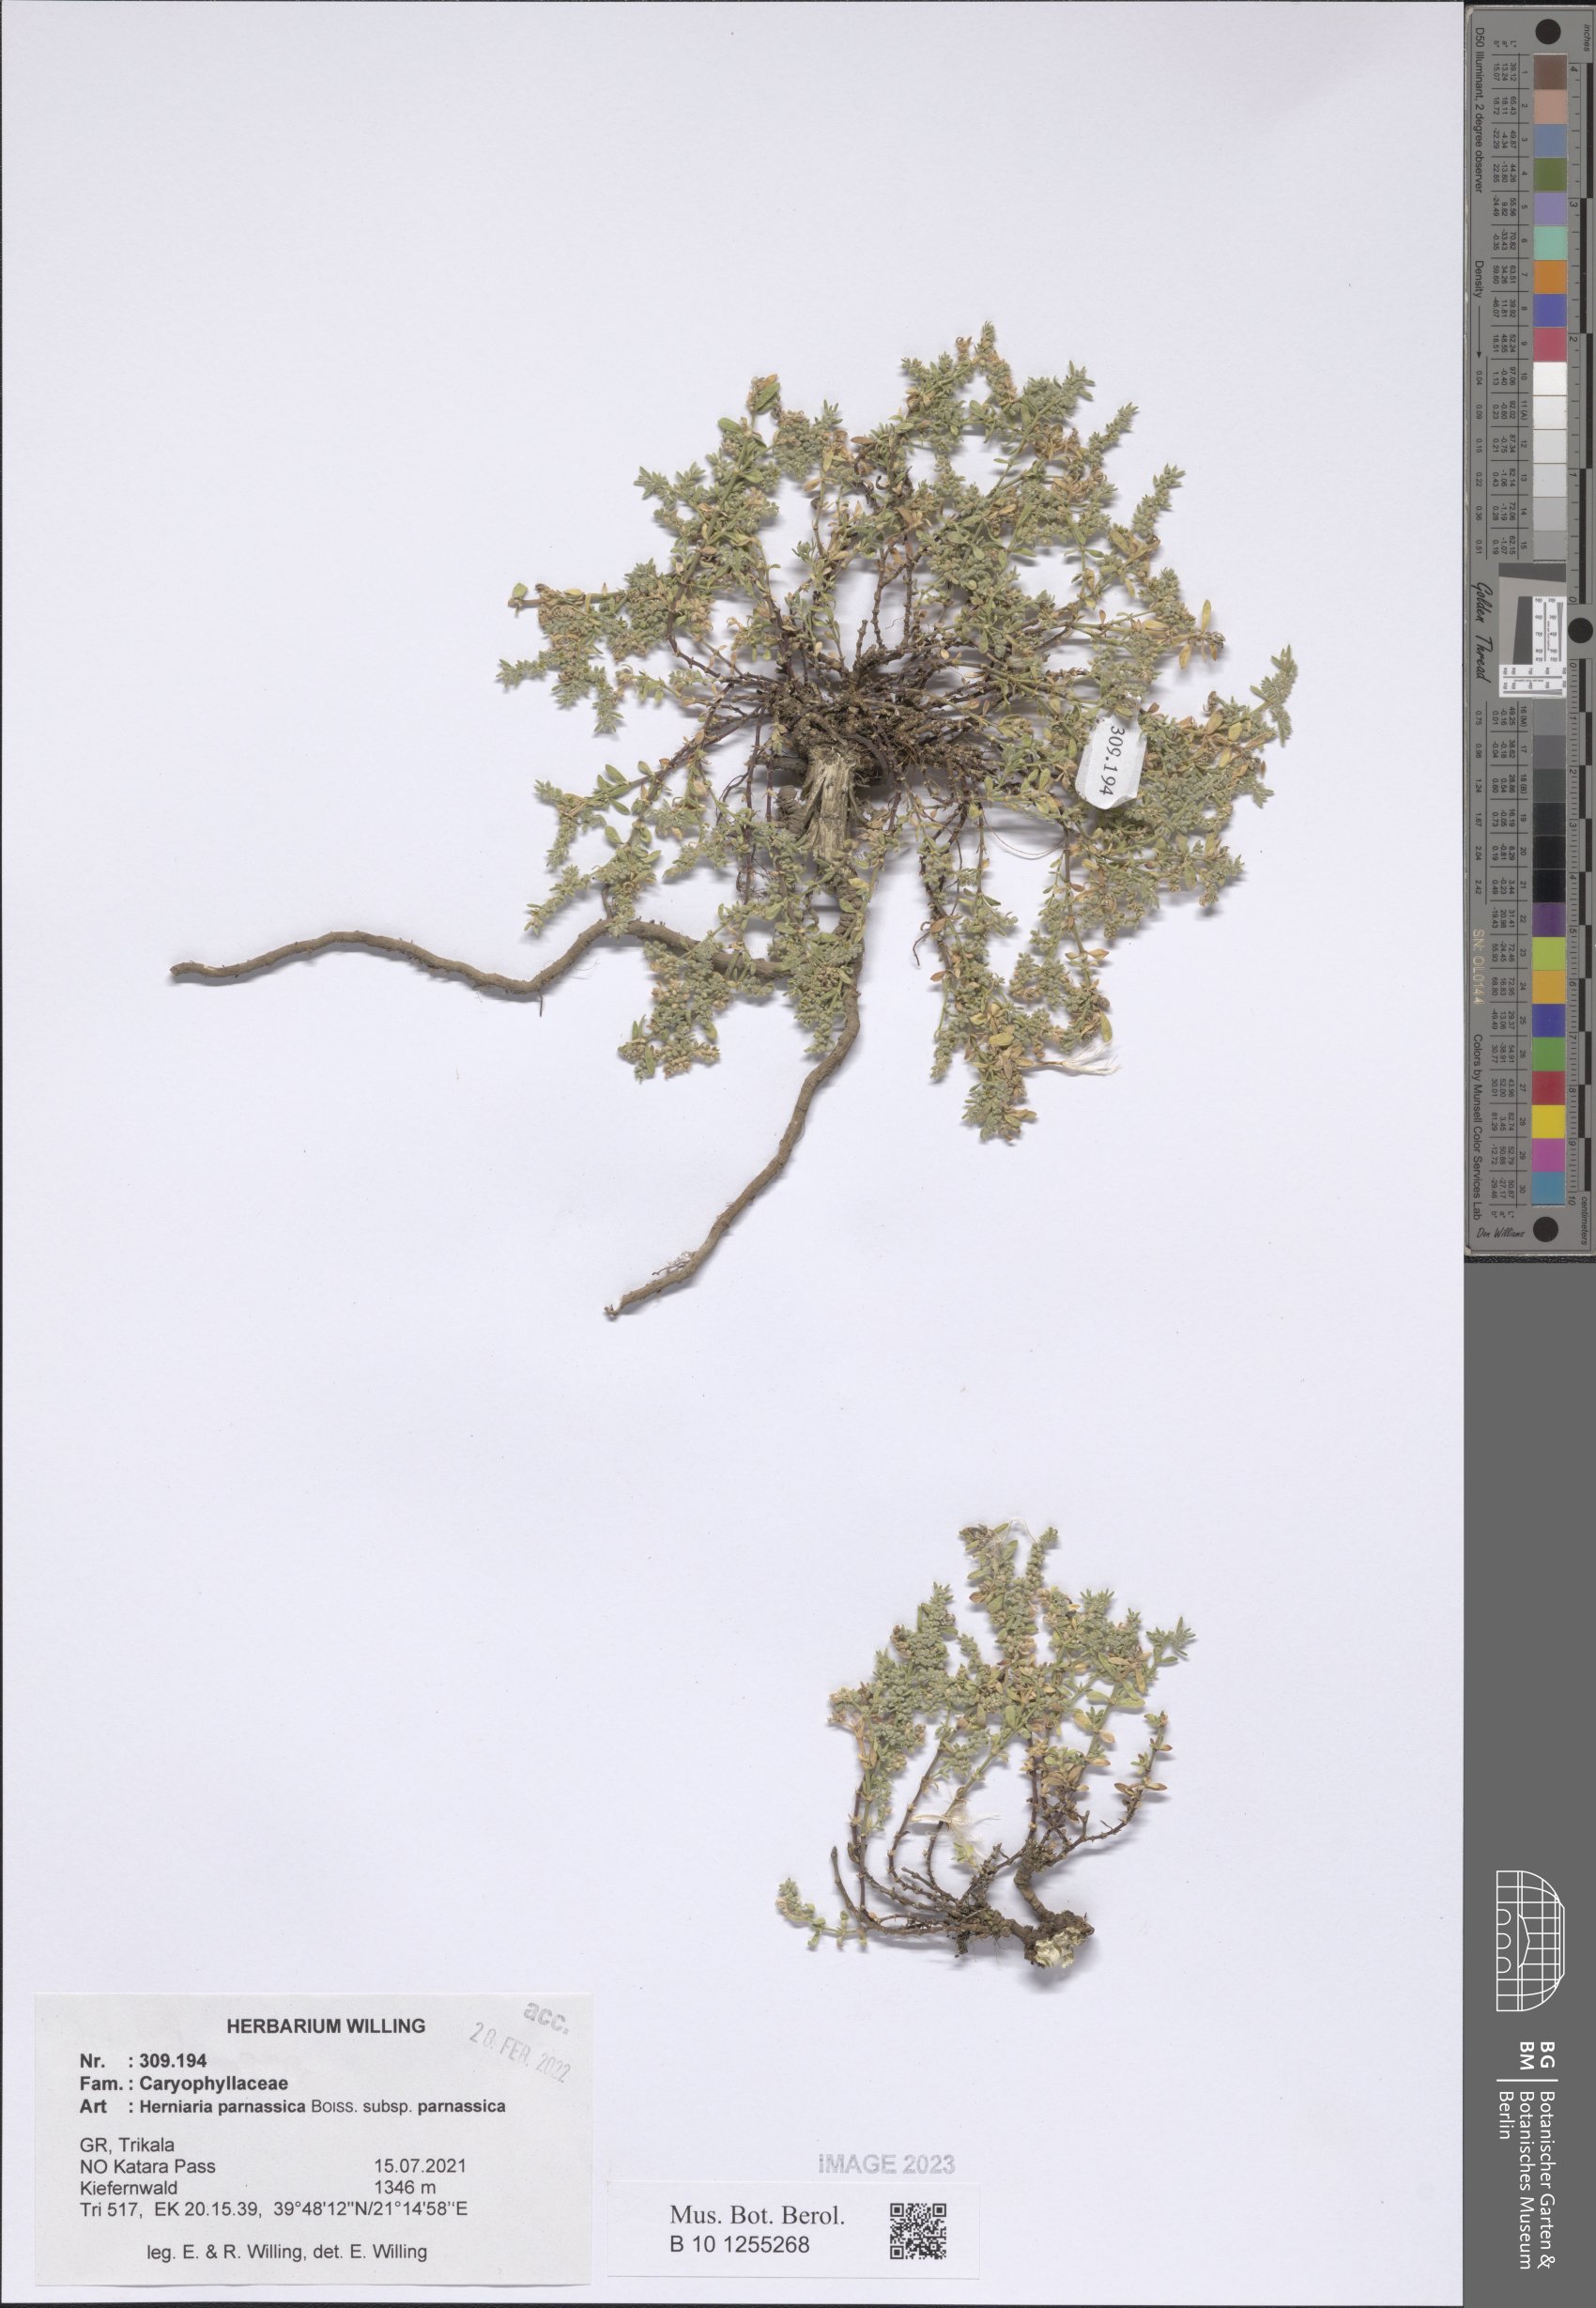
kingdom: Plantae
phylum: Tracheophyta
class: Magnoliopsida
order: Caryophyllales
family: Caryophyllaceae
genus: Herniaria
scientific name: Herniaria parnassica
